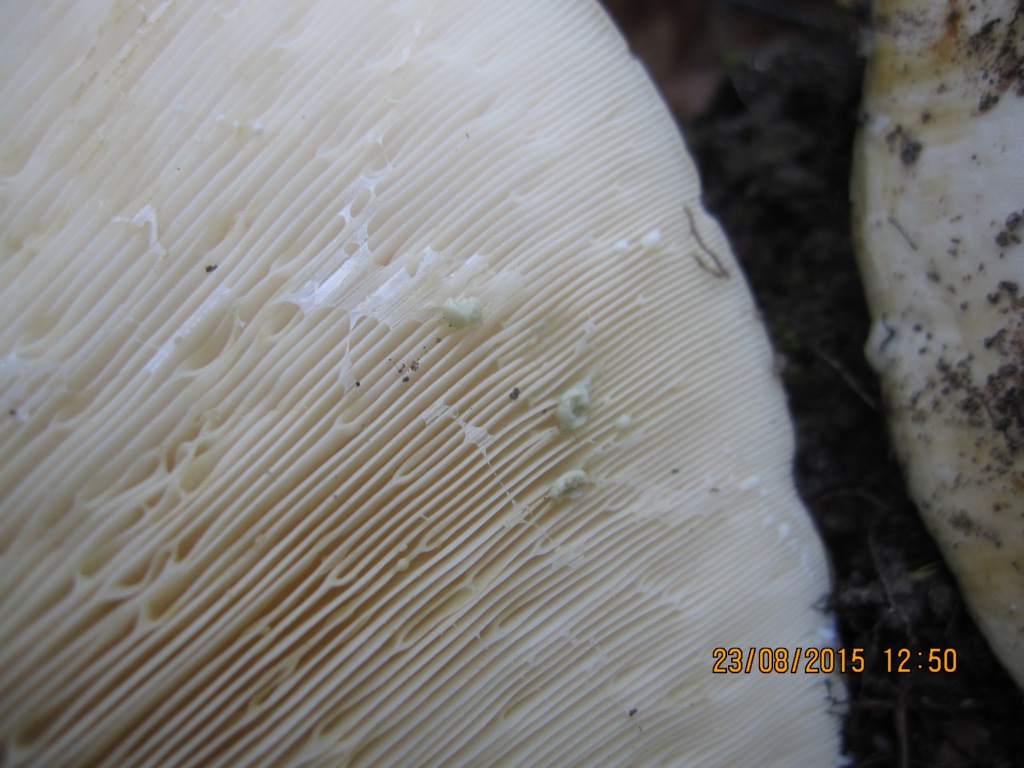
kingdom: Fungi
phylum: Basidiomycota
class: Agaricomycetes
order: Russulales
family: Russulaceae
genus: Lactifluus
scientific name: Lactifluus glaucescens
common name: grønplettet mælkehat
